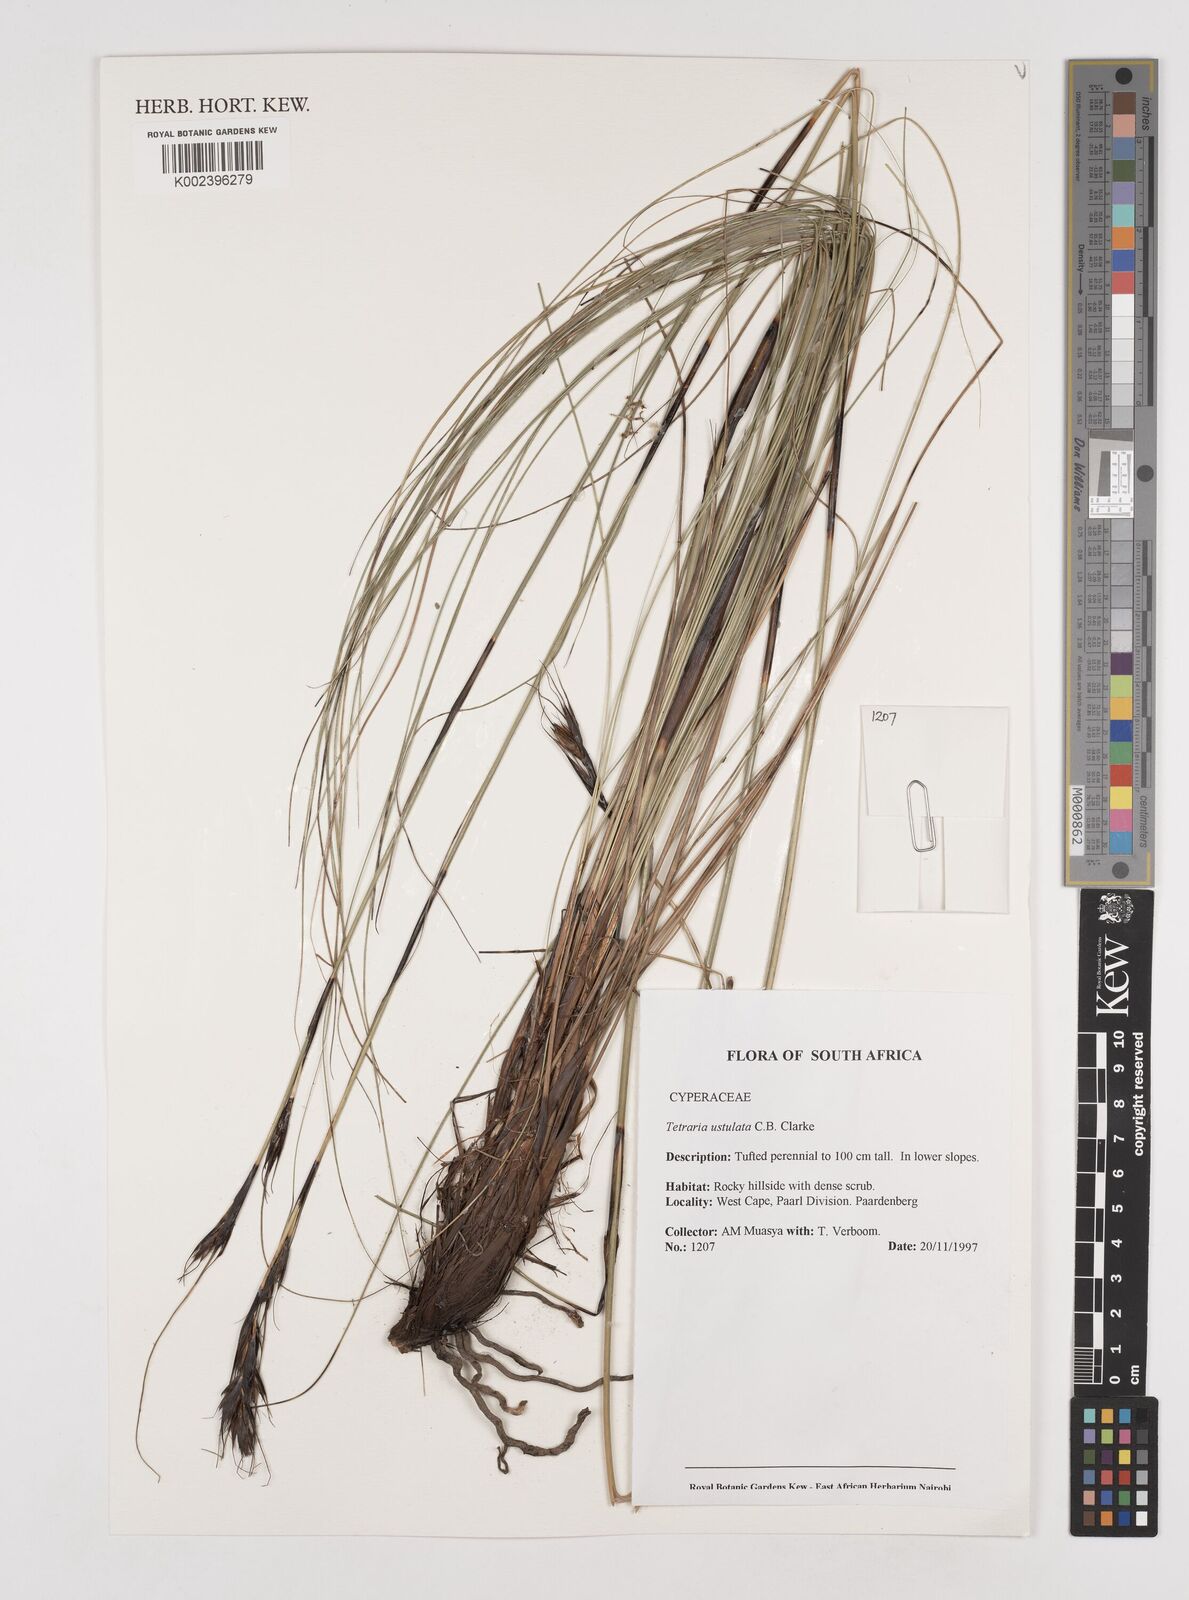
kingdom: Plantae
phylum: Tracheophyta
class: Liliopsida
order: Poales
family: Cyperaceae
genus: Tetraria
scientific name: Tetraria ustulata
